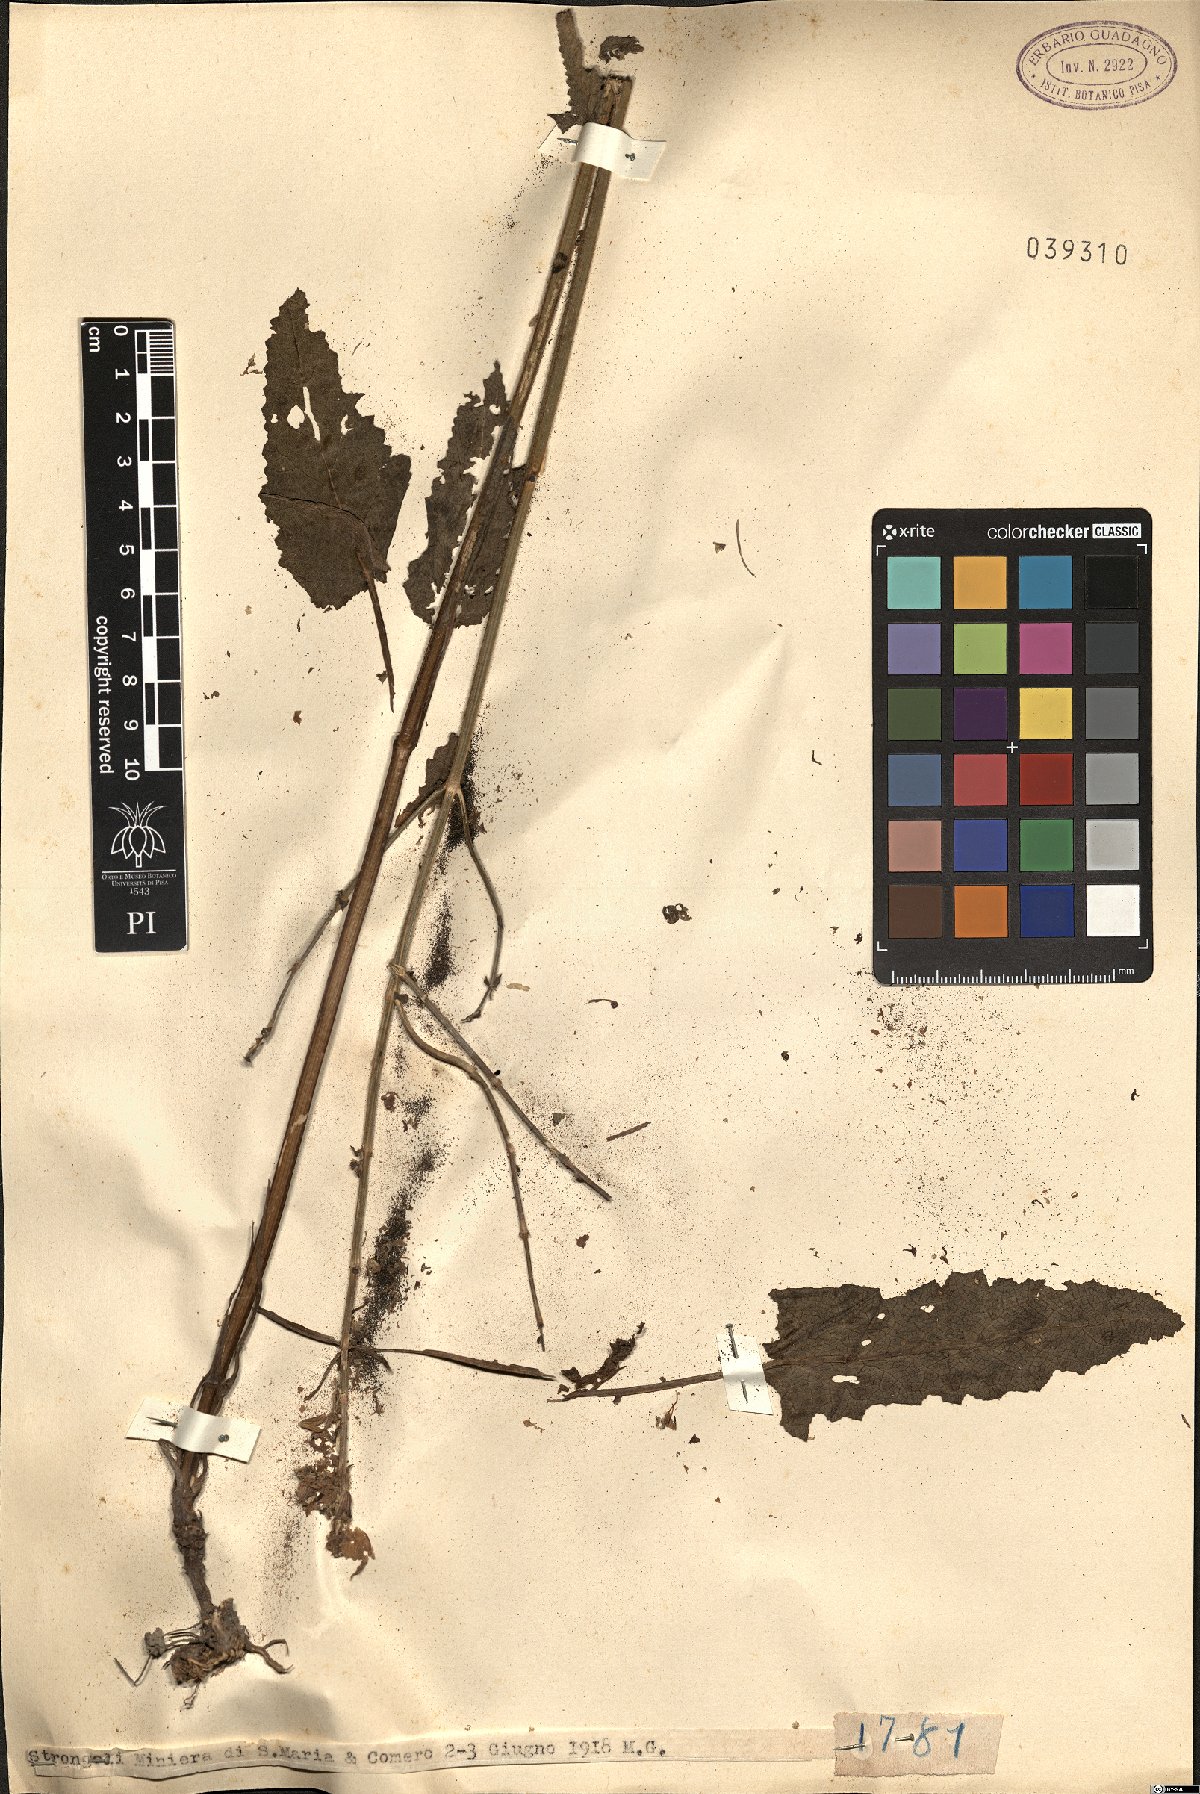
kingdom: Plantae
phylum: Tracheophyta
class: Magnoliopsida
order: Lamiales
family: Lamiaceae
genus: Salvia
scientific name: Salvia
